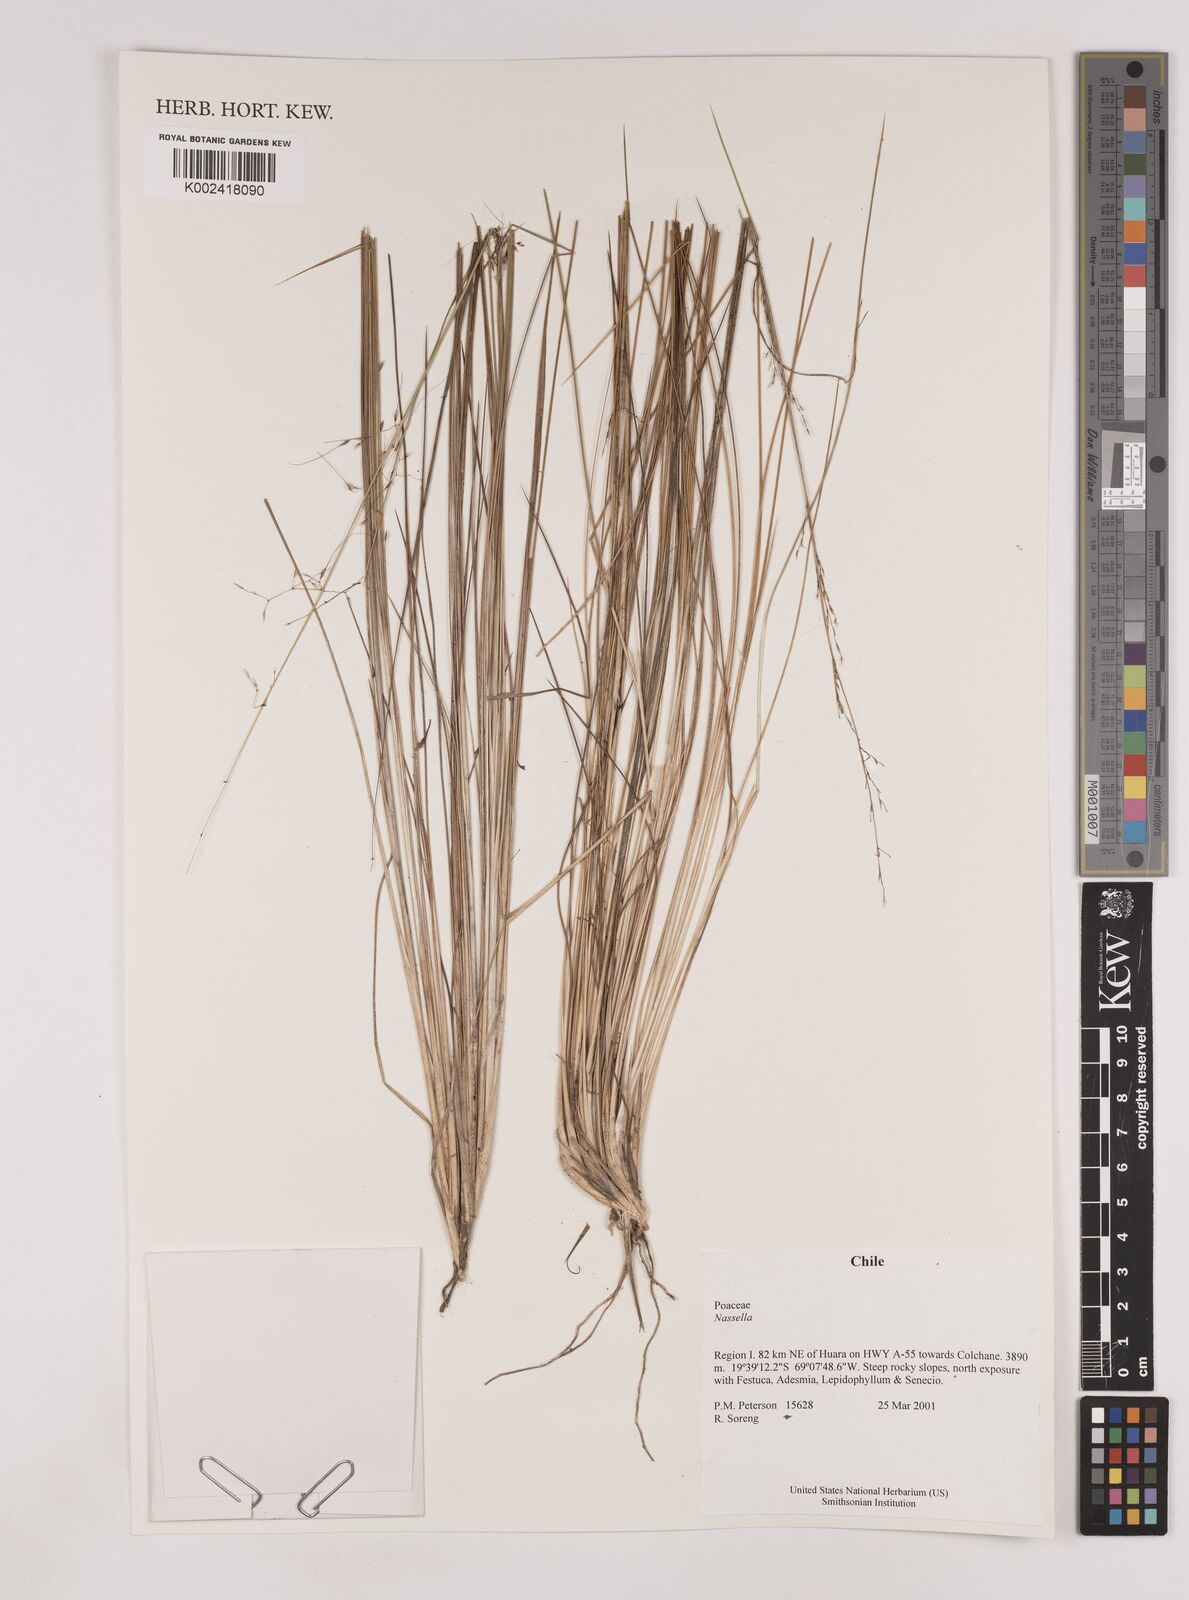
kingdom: Plantae
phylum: Tracheophyta
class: Liliopsida
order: Poales
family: Poaceae
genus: Nassella
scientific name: Nassella
